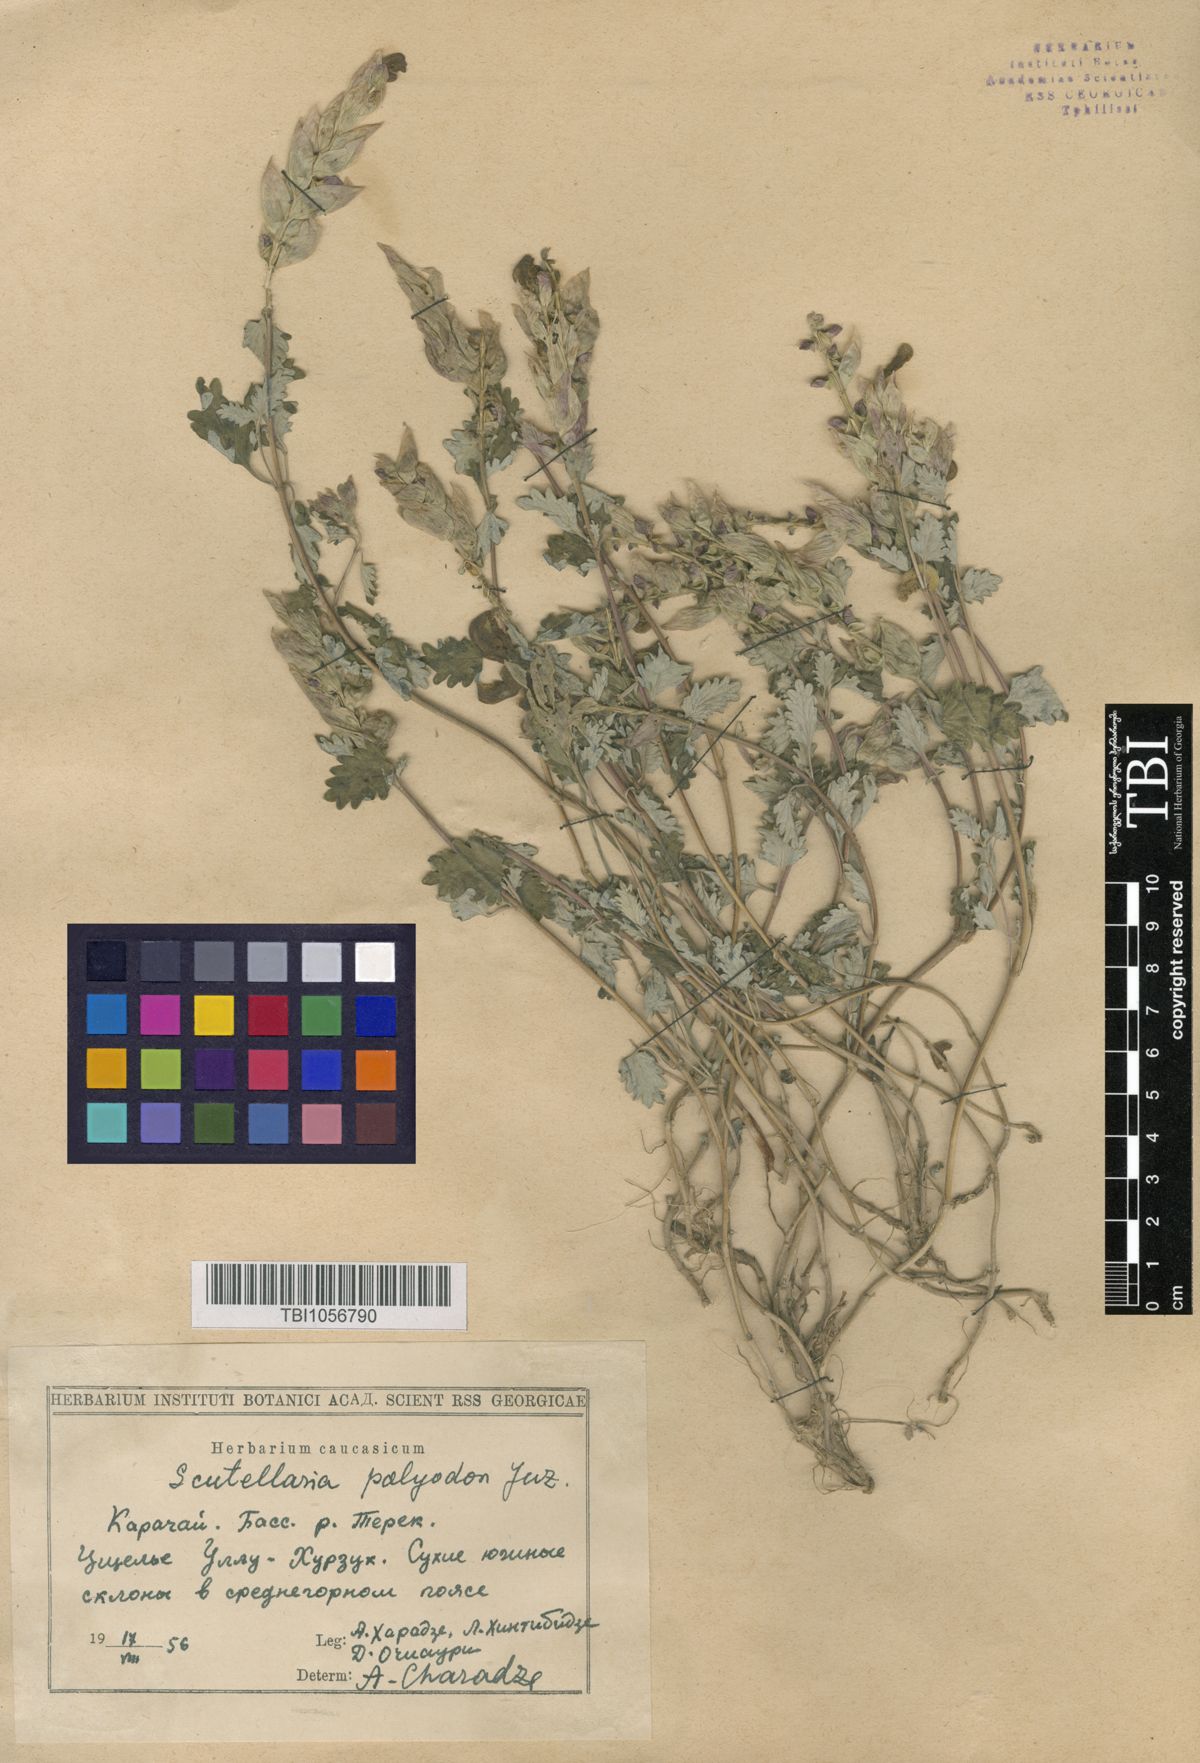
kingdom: Plantae
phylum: Tracheophyta
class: Magnoliopsida
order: Lamiales
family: Lamiaceae
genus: Scutellaria
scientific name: Scutellaria caucasica
